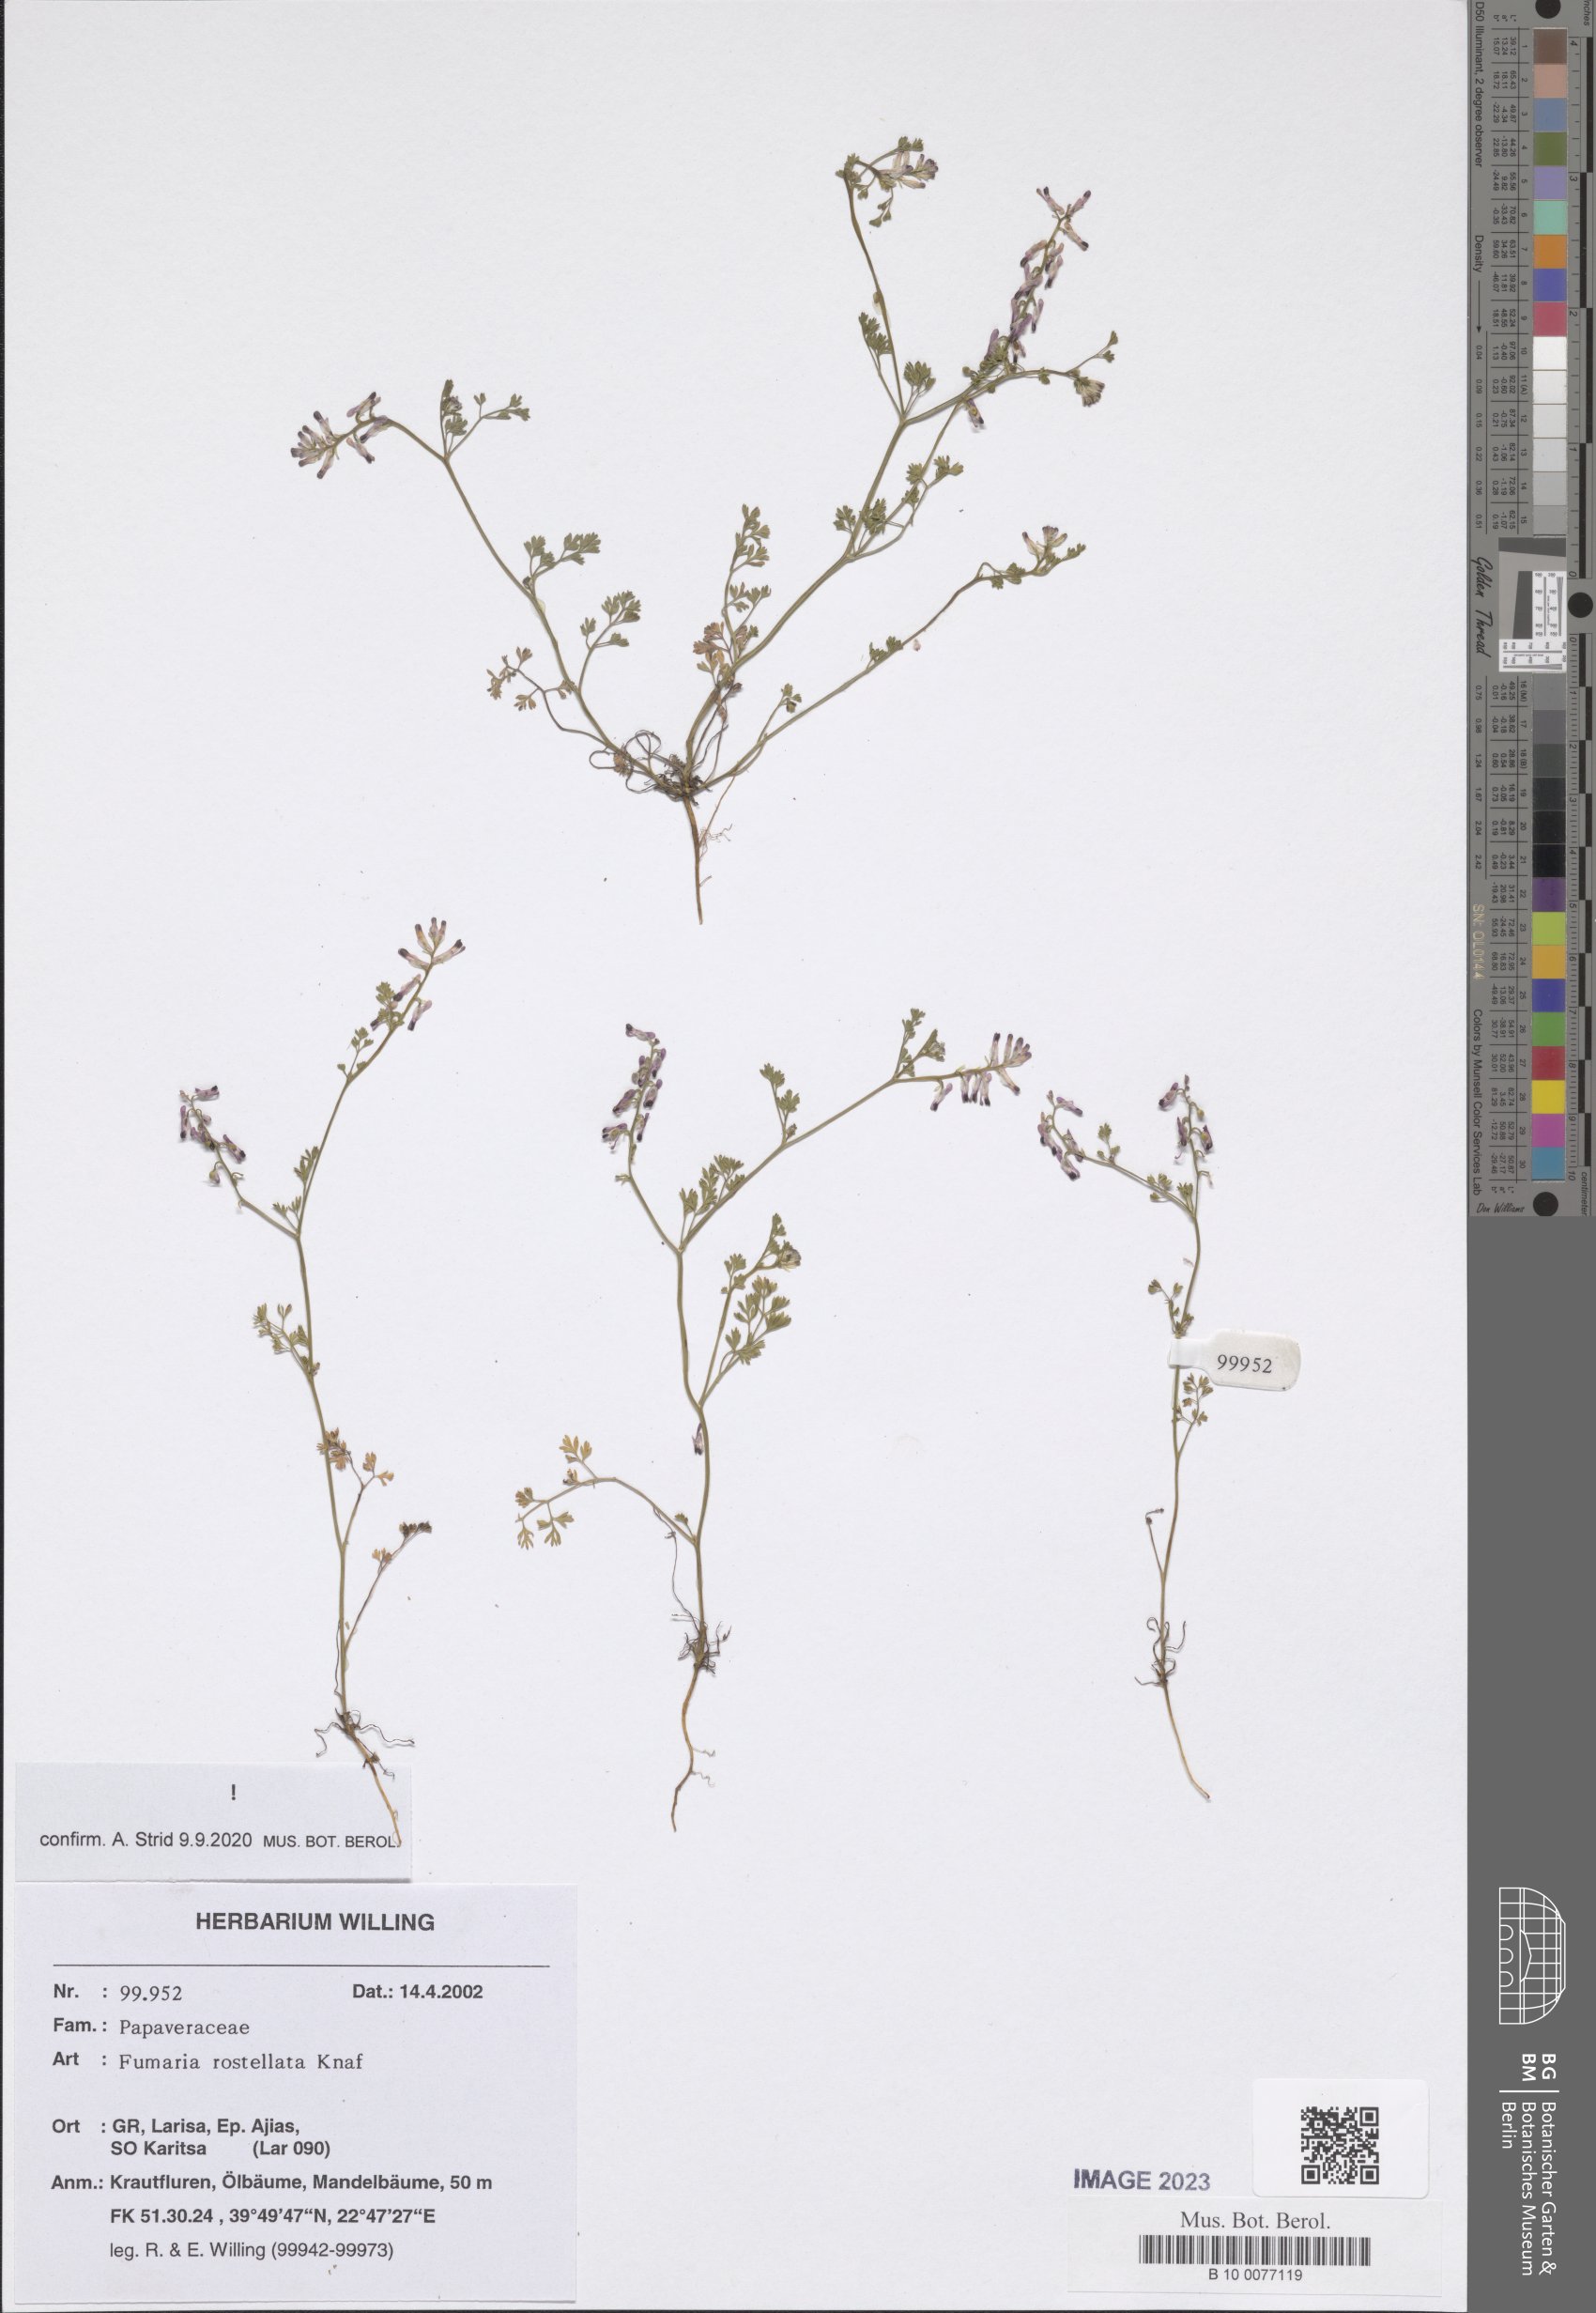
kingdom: Plantae
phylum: Tracheophyta
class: Magnoliopsida
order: Ranunculales
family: Papaveraceae
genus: Fumaria
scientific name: Fumaria rostellata
